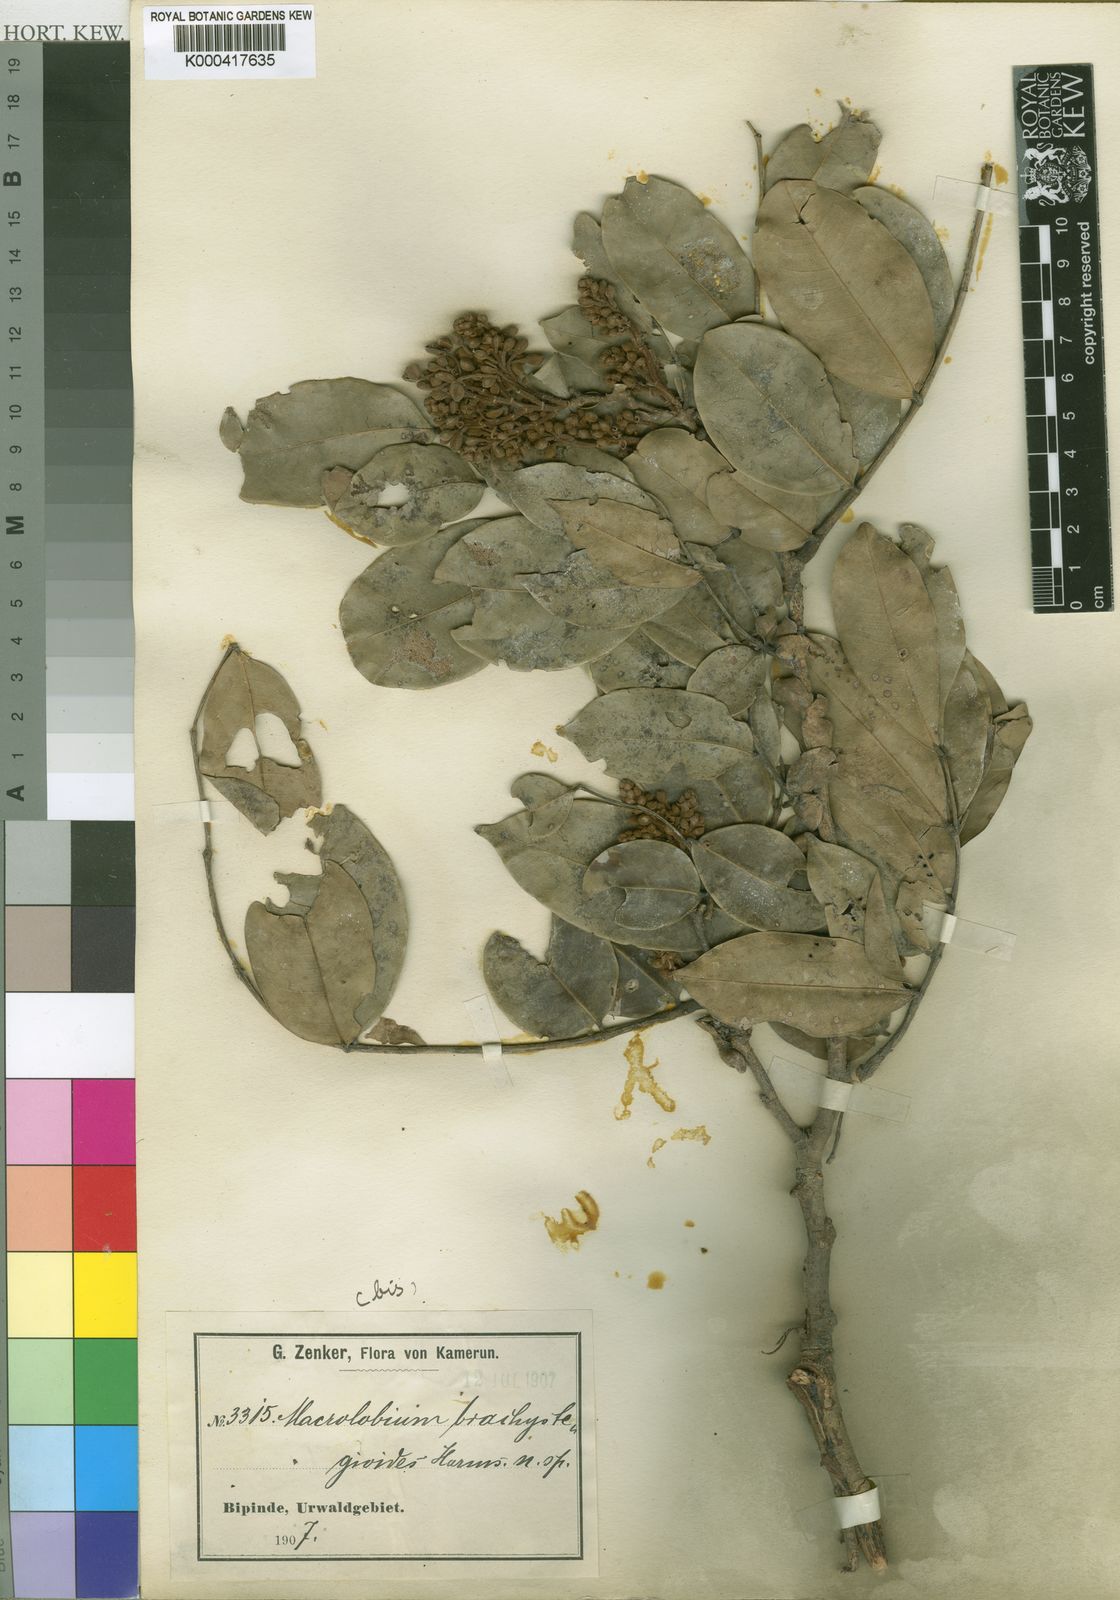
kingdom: Plantae
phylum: Tracheophyta
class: Magnoliopsida
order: Fabales
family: Fabaceae
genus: Gilbertiodendron
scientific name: Gilbertiodendron
